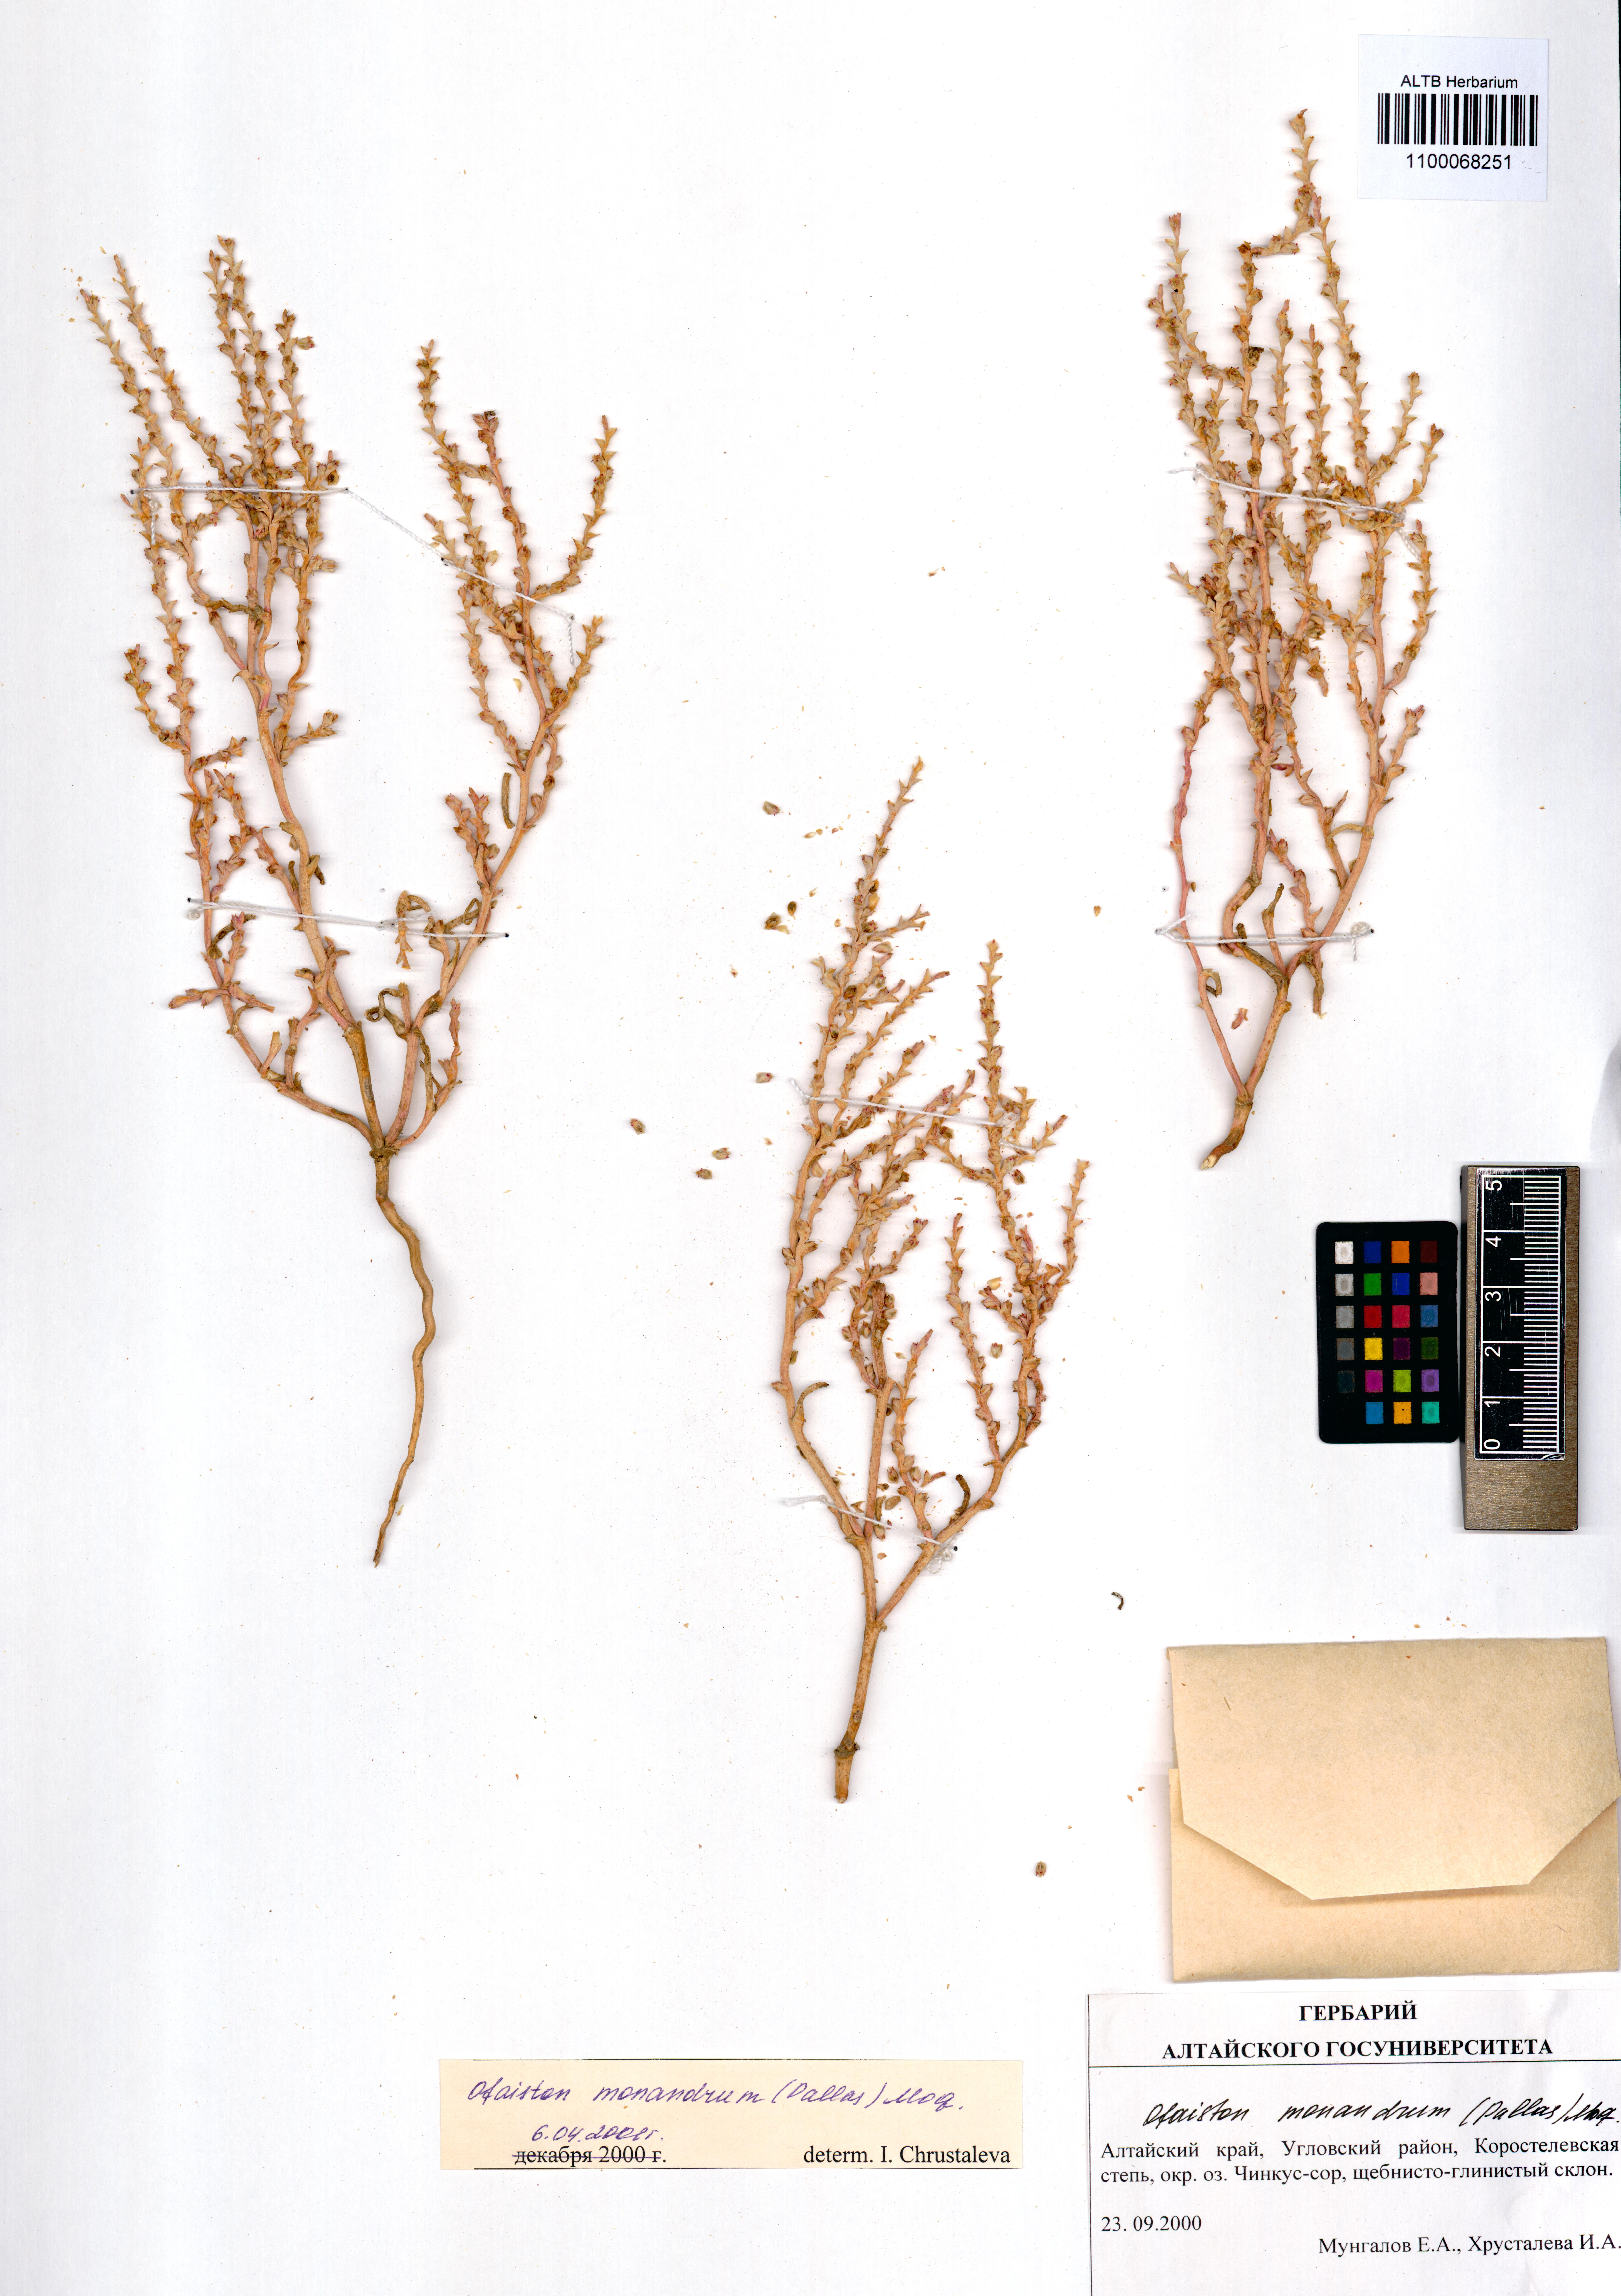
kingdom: Plantae
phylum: Tracheophyta
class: Magnoliopsida
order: Caryophyllales
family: Amaranthaceae
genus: Ofaiston
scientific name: Ofaiston monandrum
